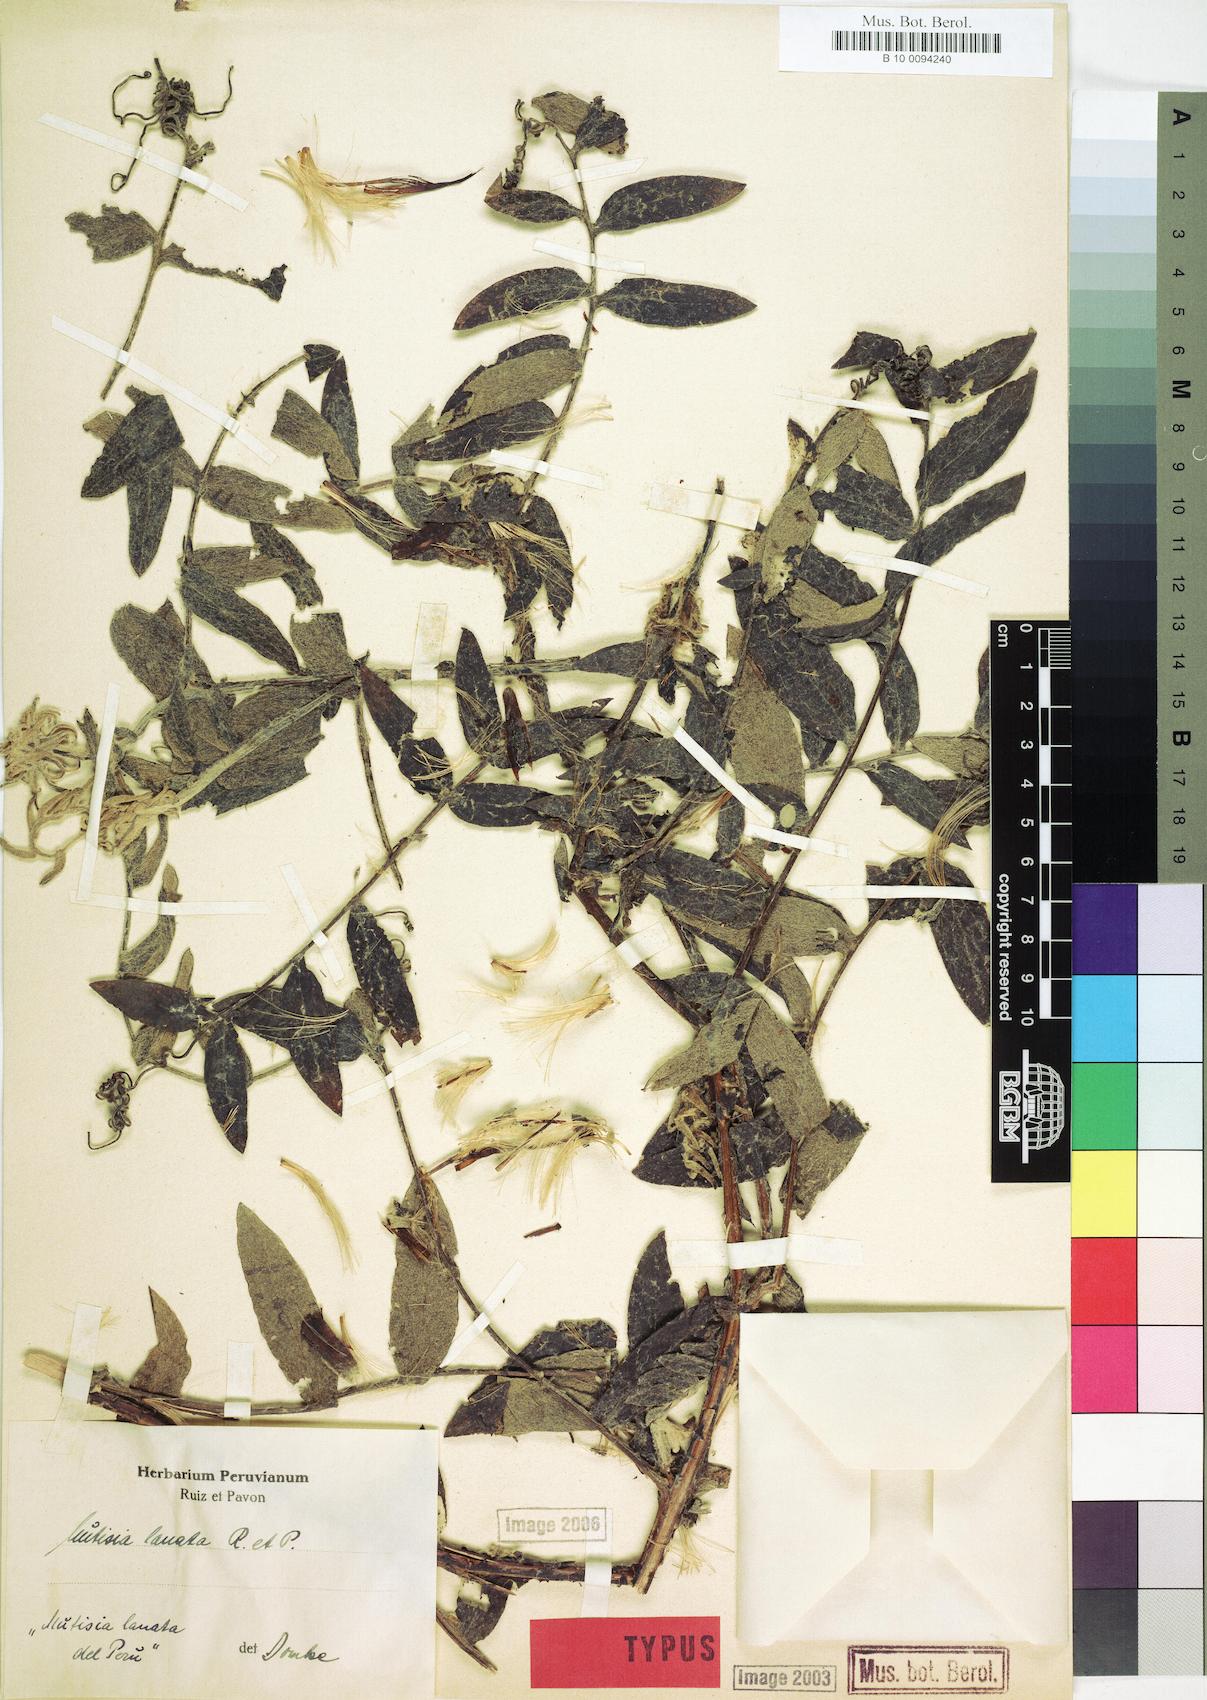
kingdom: Plantae
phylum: Tracheophyta
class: Magnoliopsida
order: Asterales
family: Asteraceae
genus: Mutisia
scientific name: Mutisia lanata
